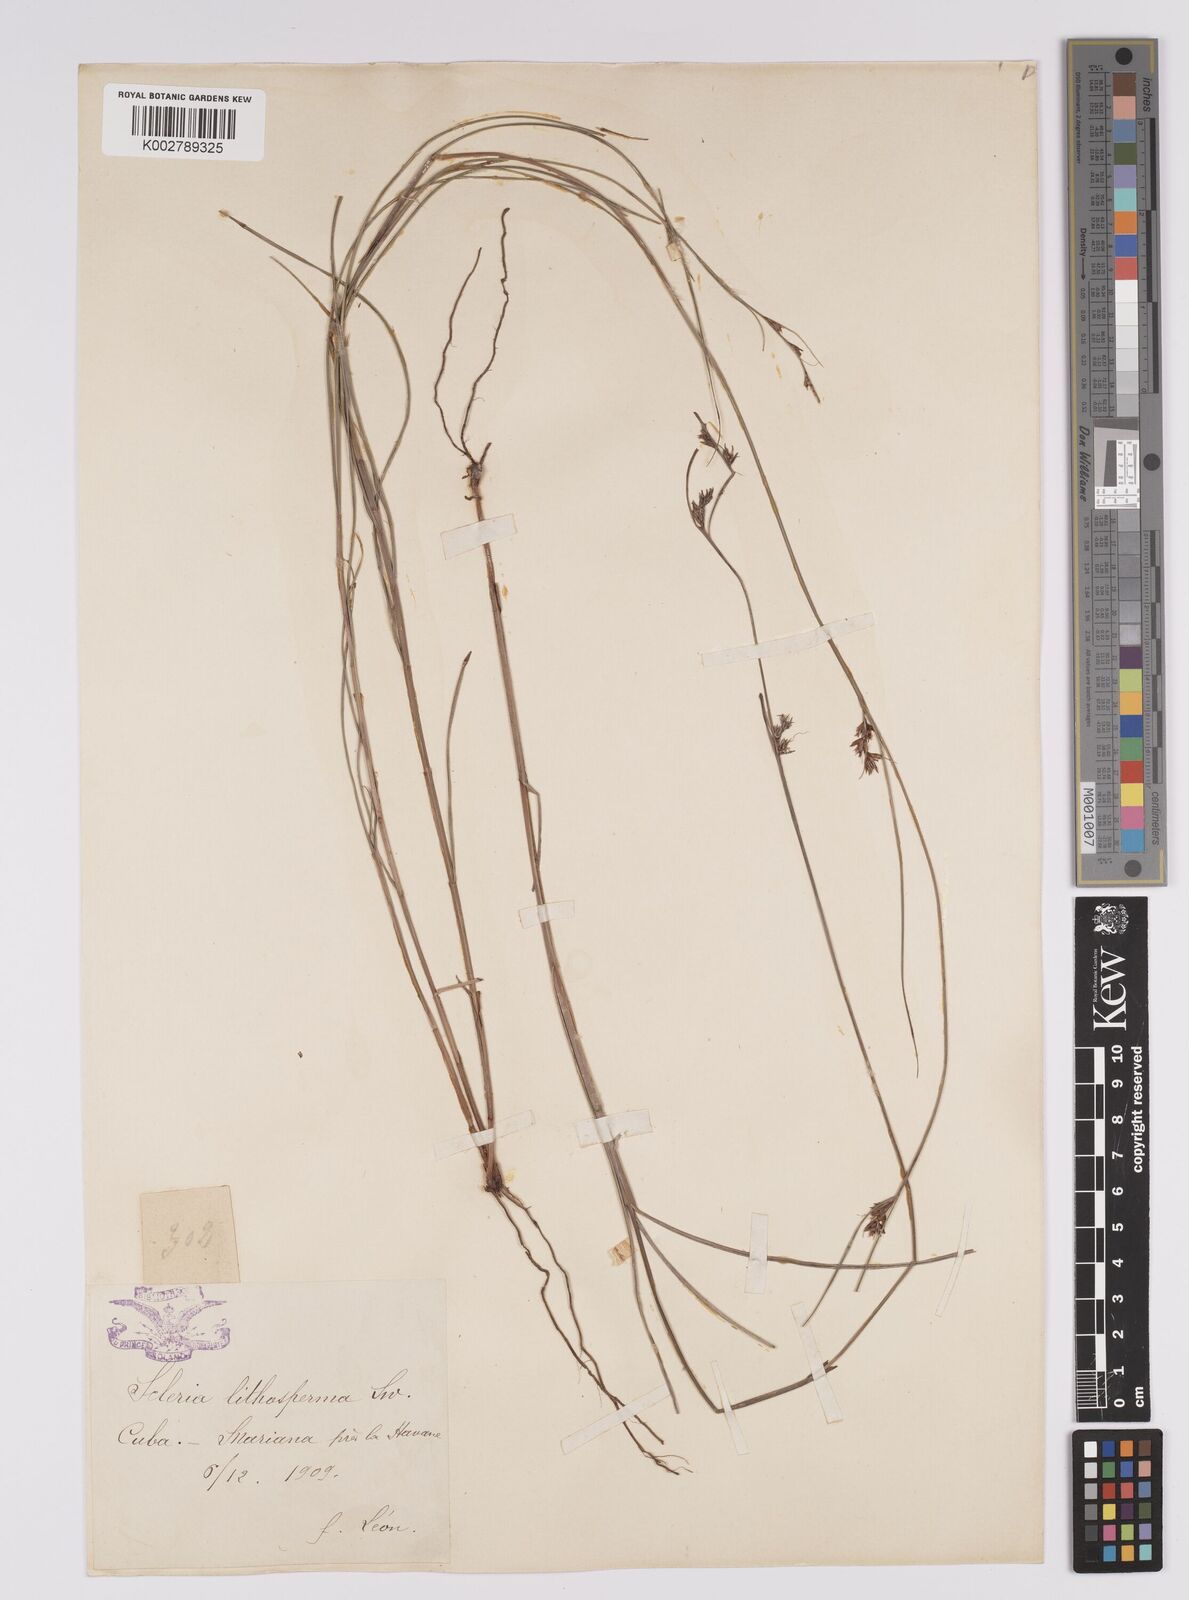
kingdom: Plantae
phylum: Tracheophyta
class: Liliopsida
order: Poales
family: Cyperaceae
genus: Scleria
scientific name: Scleria lithosperma
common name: Florida keys nut-rush
